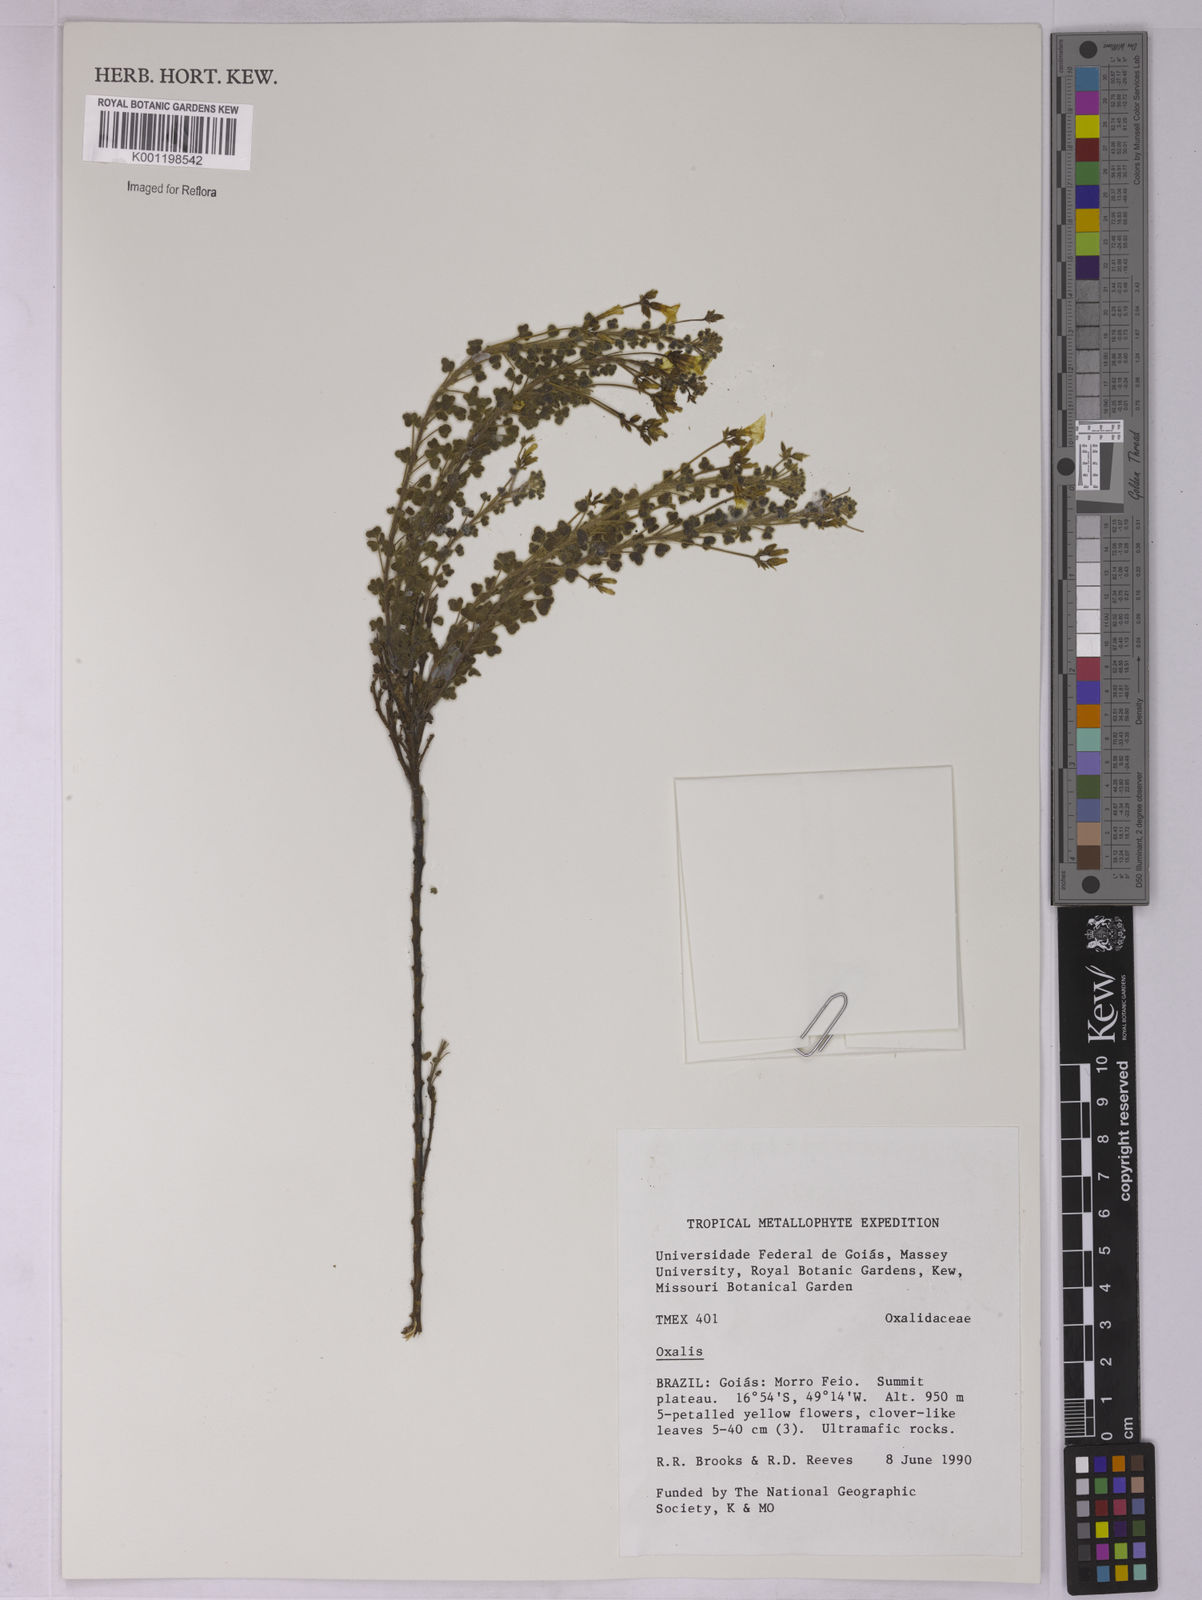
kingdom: Plantae
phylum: Tracheophyta
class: Magnoliopsida
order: Oxalidales
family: Oxalidaceae
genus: Oxalis
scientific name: Oxalis
